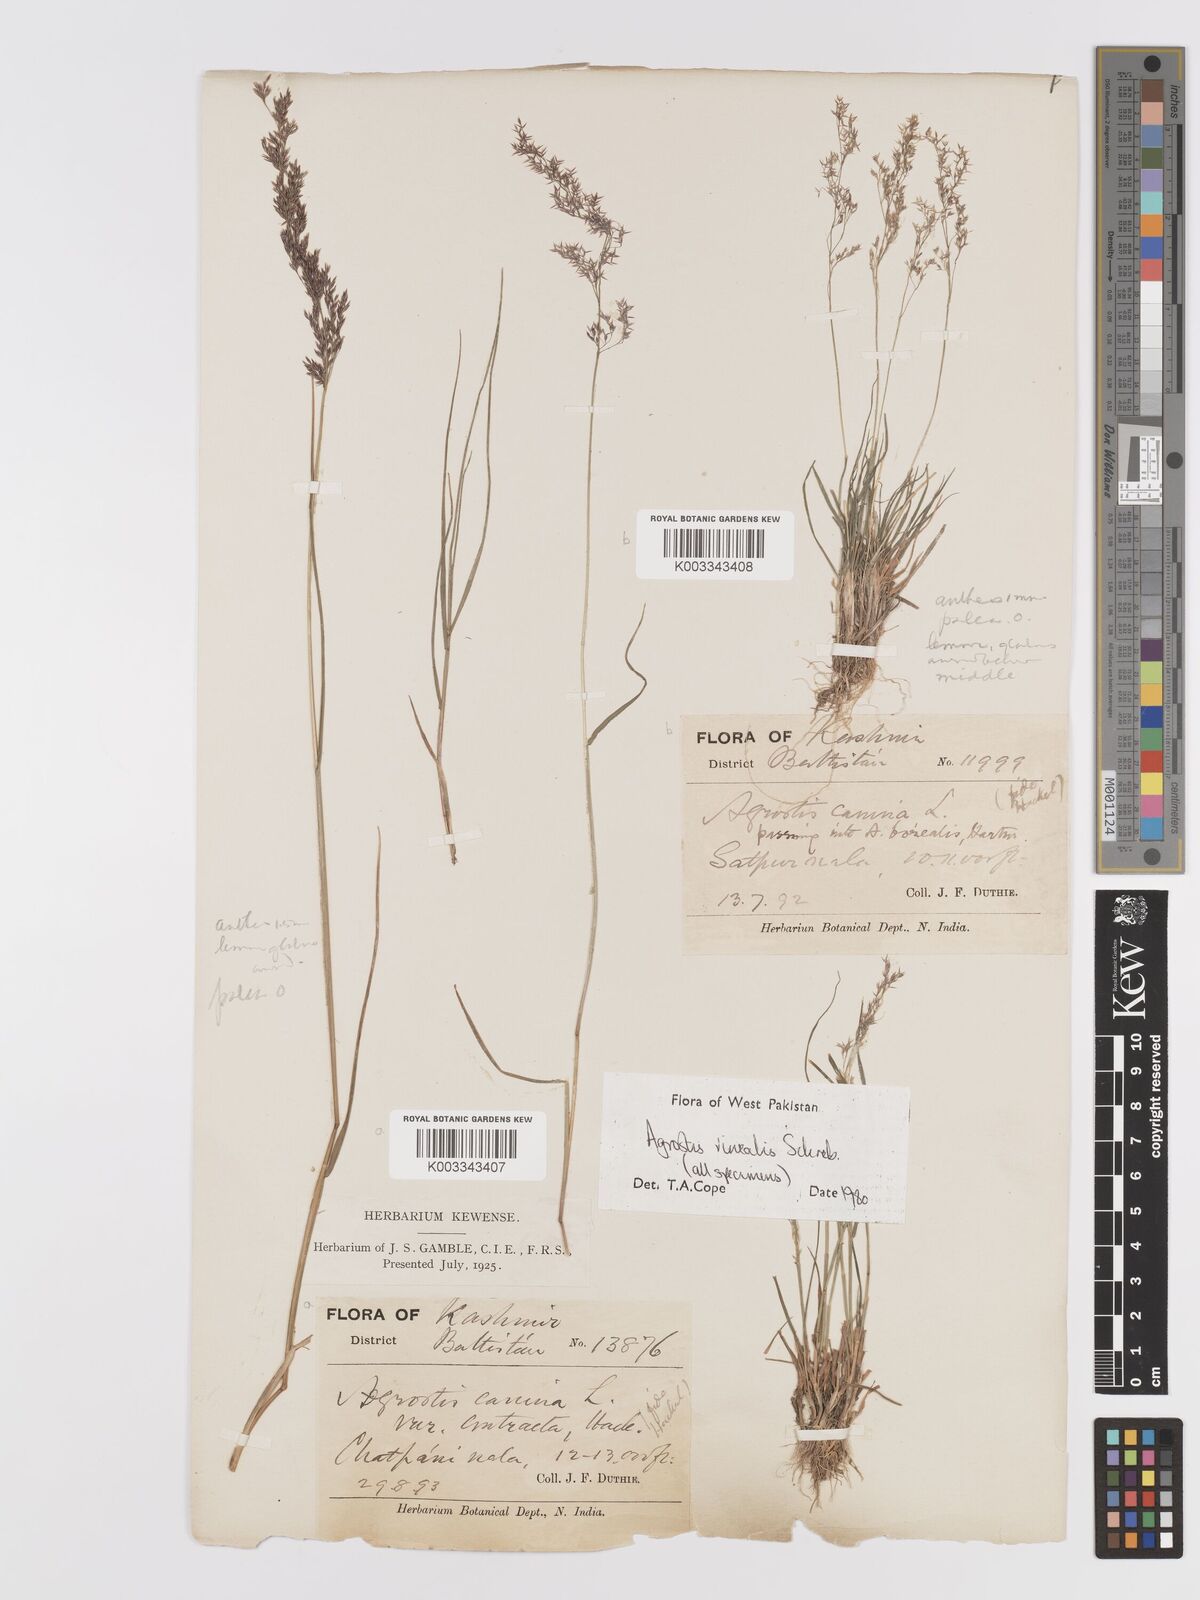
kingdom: Plantae
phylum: Tracheophyta
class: Liliopsida
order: Poales
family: Poaceae
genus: Agrostis
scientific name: Agrostis vinealis
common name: Brown bent
